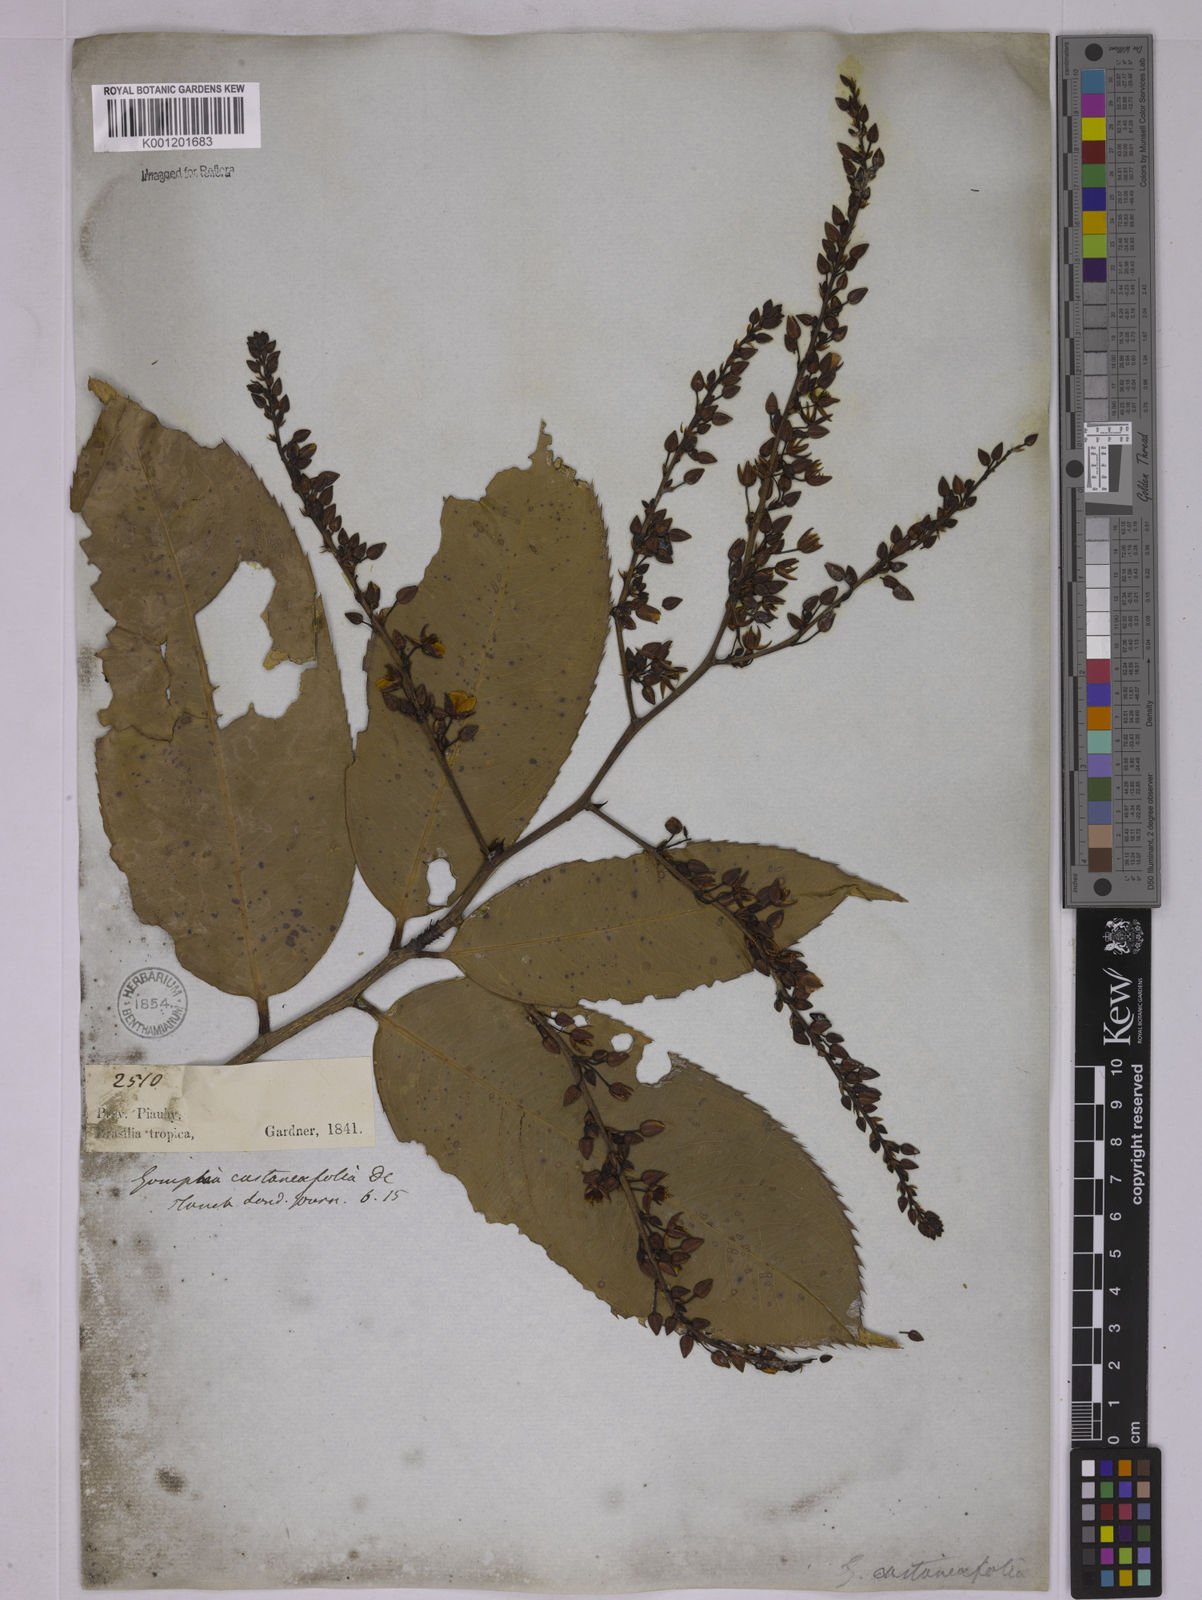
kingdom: Plantae
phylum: Tracheophyta
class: Magnoliopsida
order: Malpighiales
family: Ochnaceae
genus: Ouratea
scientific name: Ouratea castaneifolia
